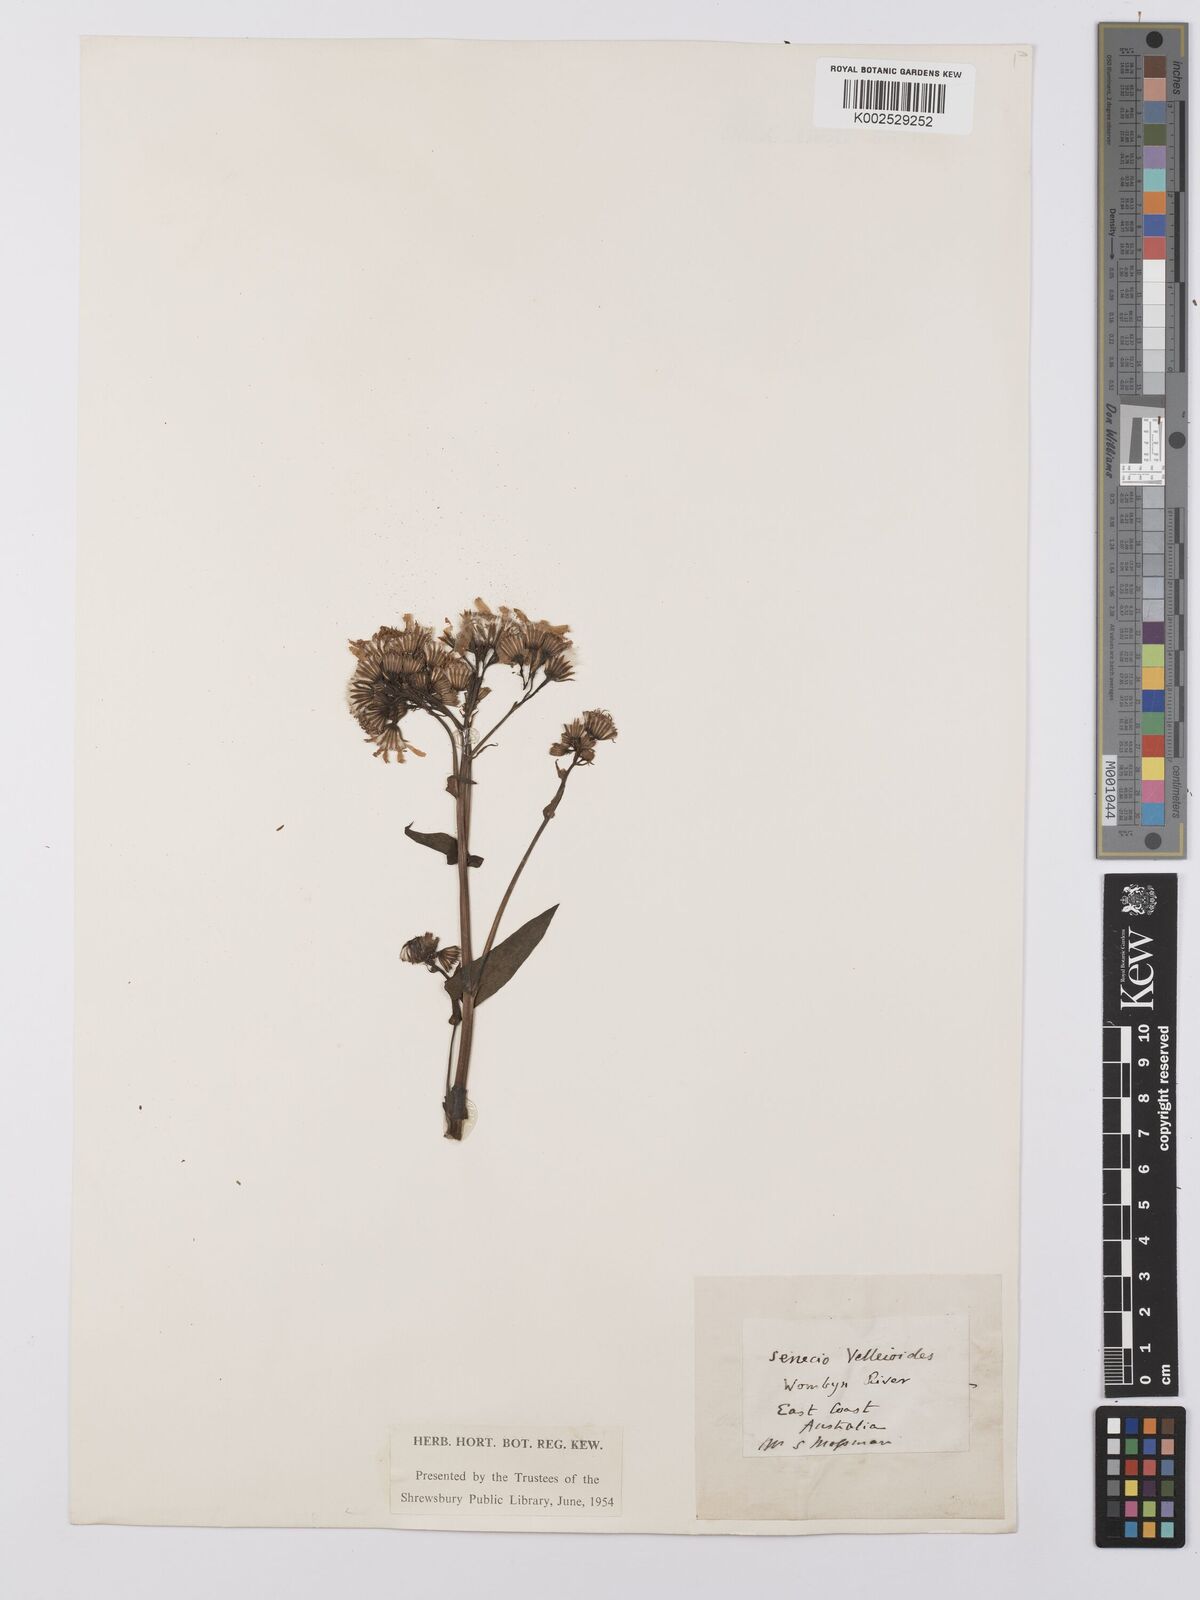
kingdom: Plantae
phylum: Tracheophyta
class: Magnoliopsida
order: Asterales
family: Asteraceae
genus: Lordhowea
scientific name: Lordhowea velleioides
